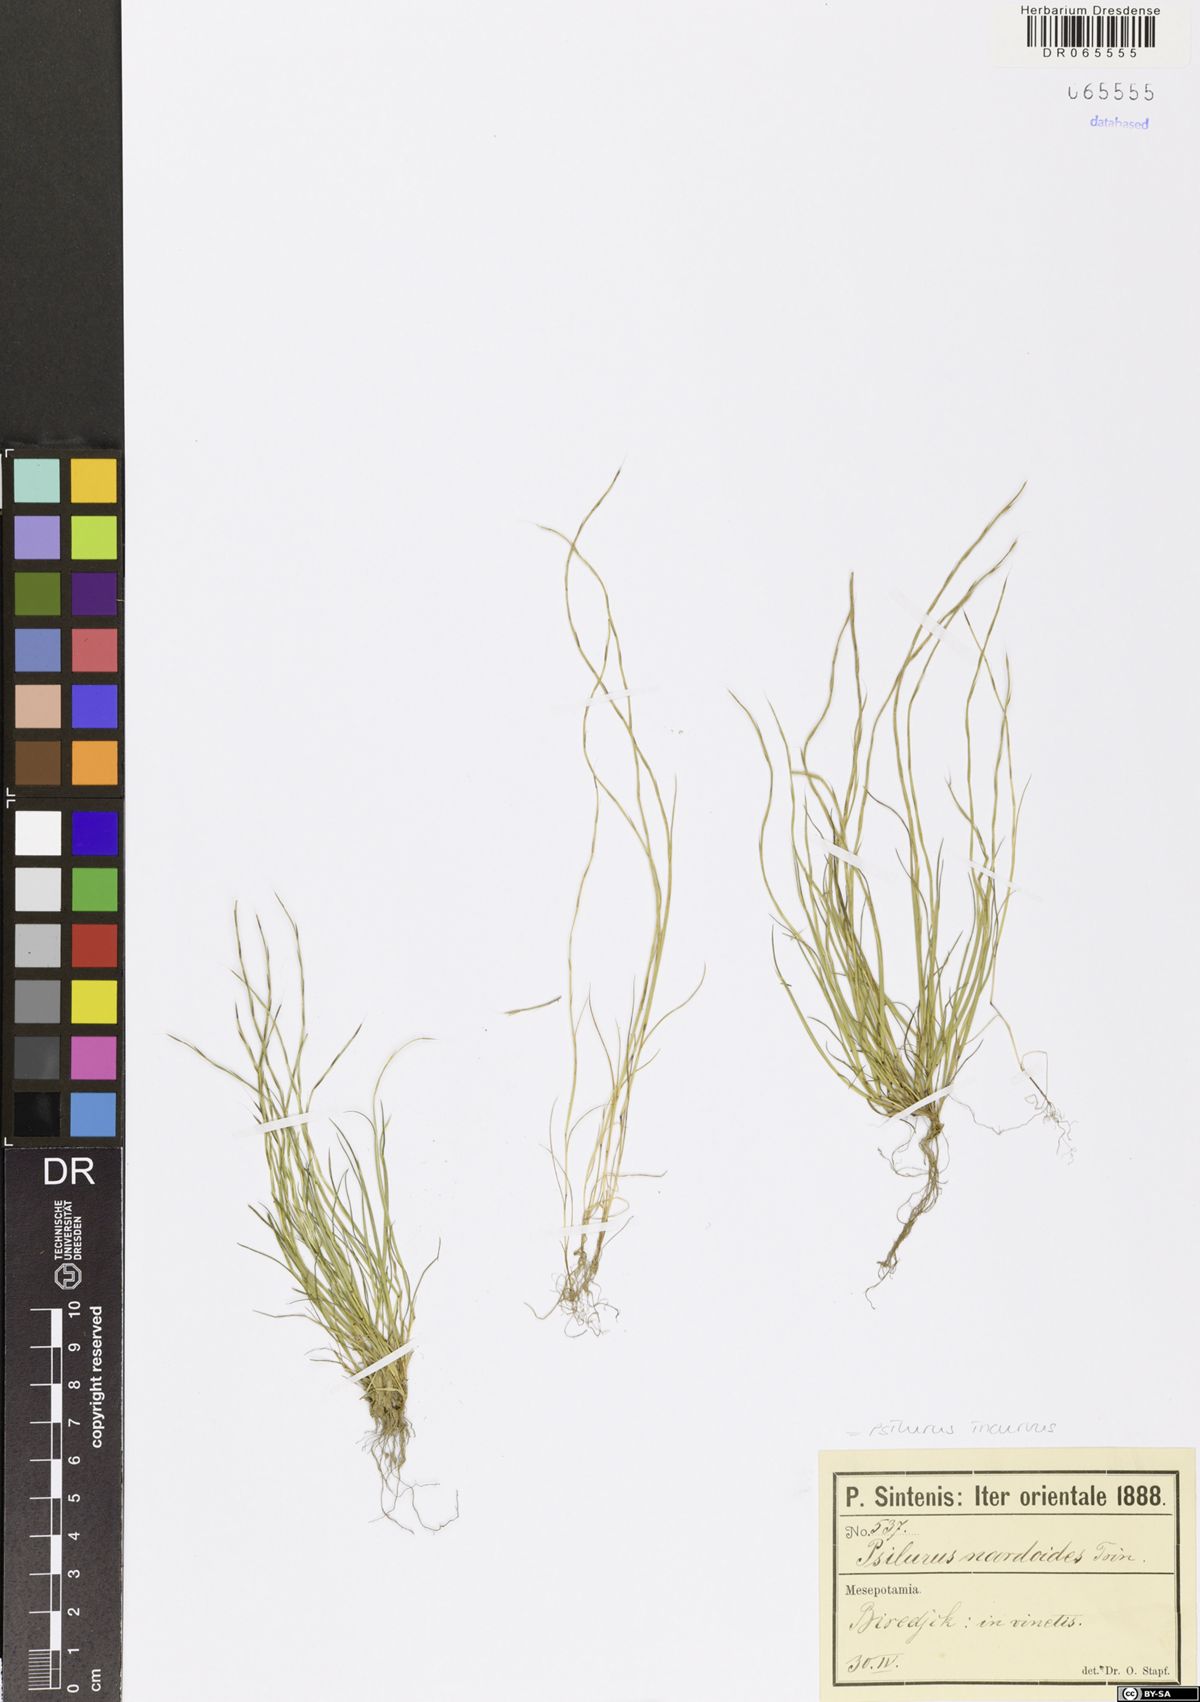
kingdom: Plantae
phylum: Tracheophyta
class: Liliopsida
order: Poales
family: Poaceae
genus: Festuca
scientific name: Festuca incurva
